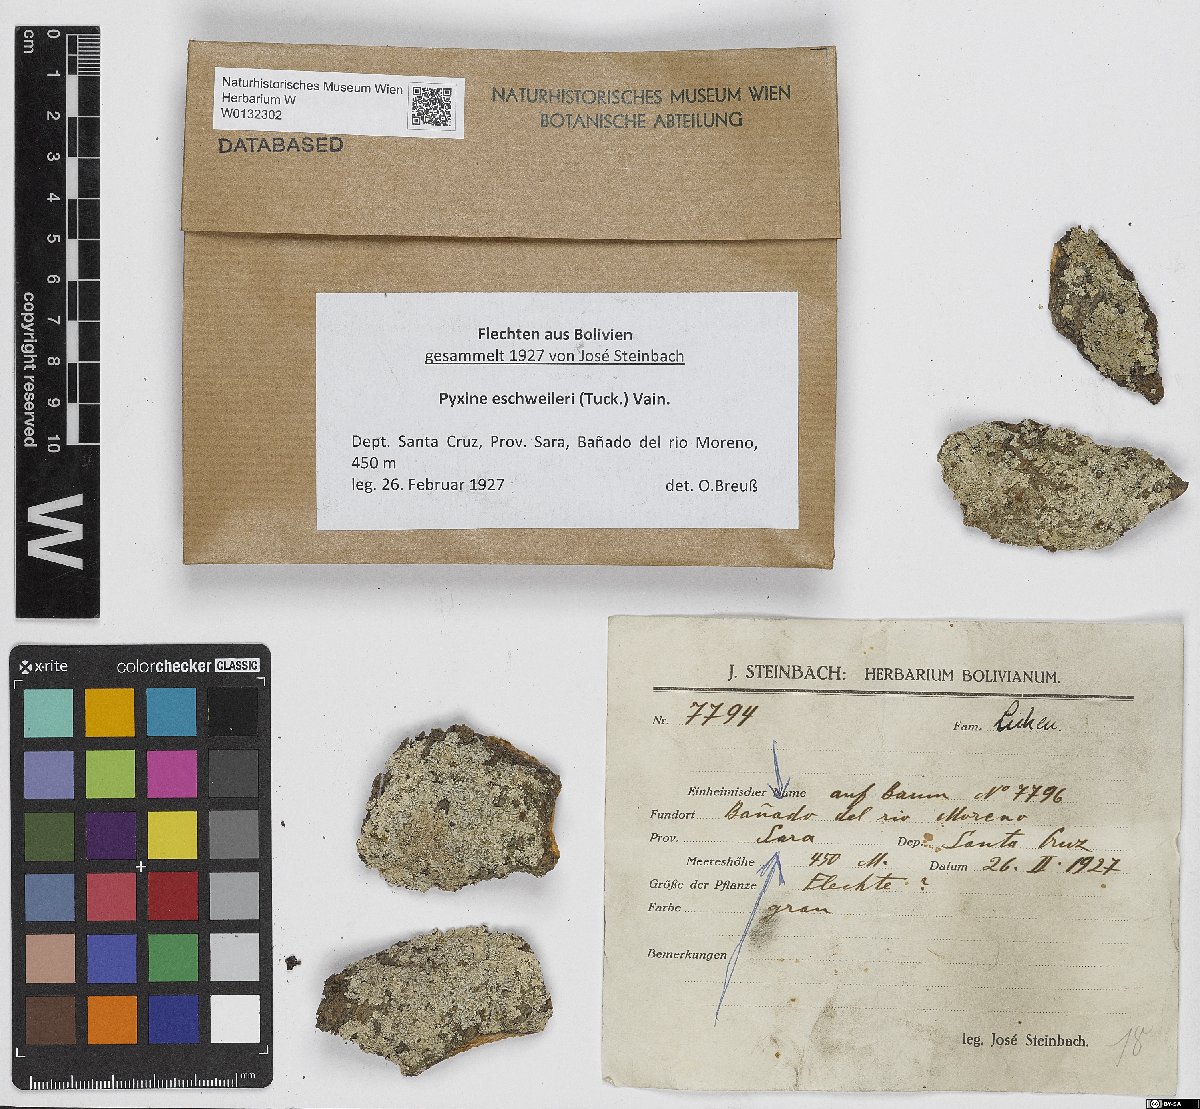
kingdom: Fungi
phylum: Ascomycota
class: Lecanoromycetes
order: Caliciales
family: Caliciaceae
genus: Pyxine
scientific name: Pyxine eschweileri
